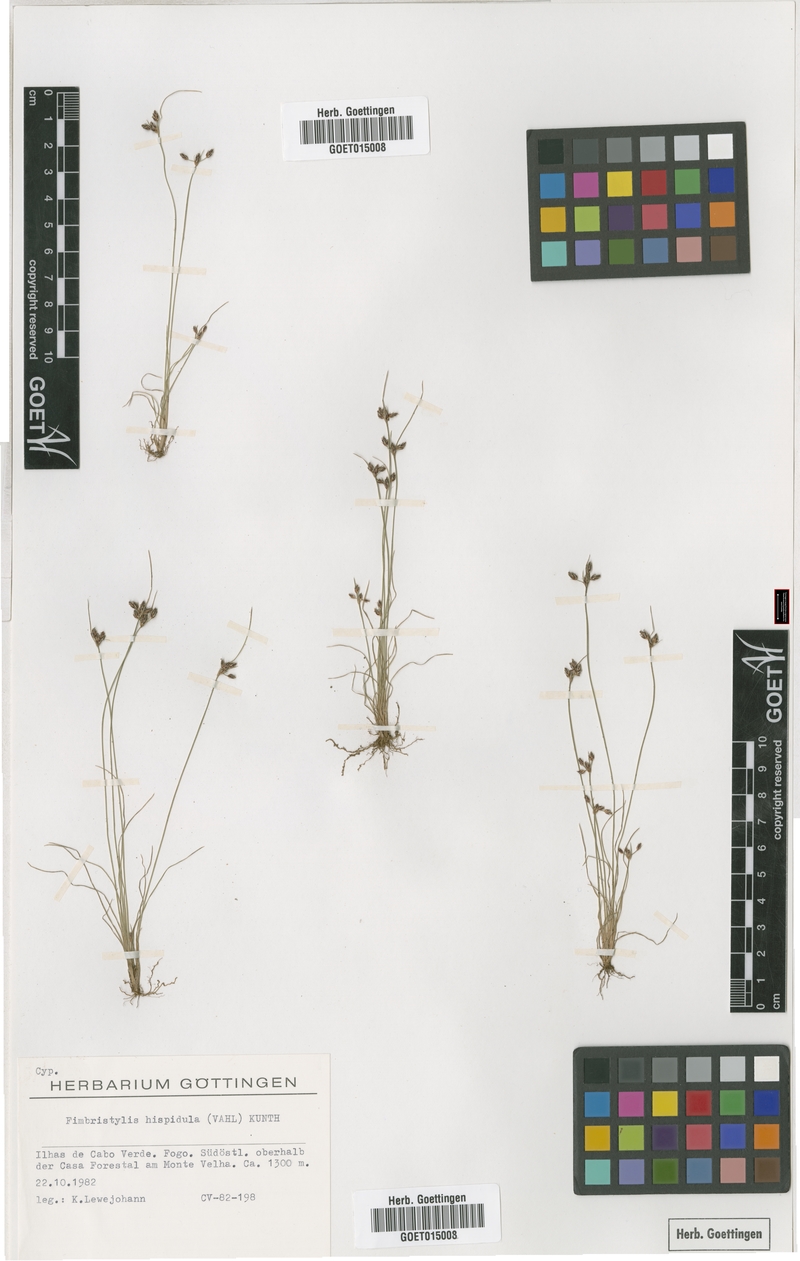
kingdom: Plantae
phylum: Tracheophyta
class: Liliopsida
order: Poales
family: Cyperaceae
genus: Bulbostylis
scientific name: Bulbostylis hispidula
